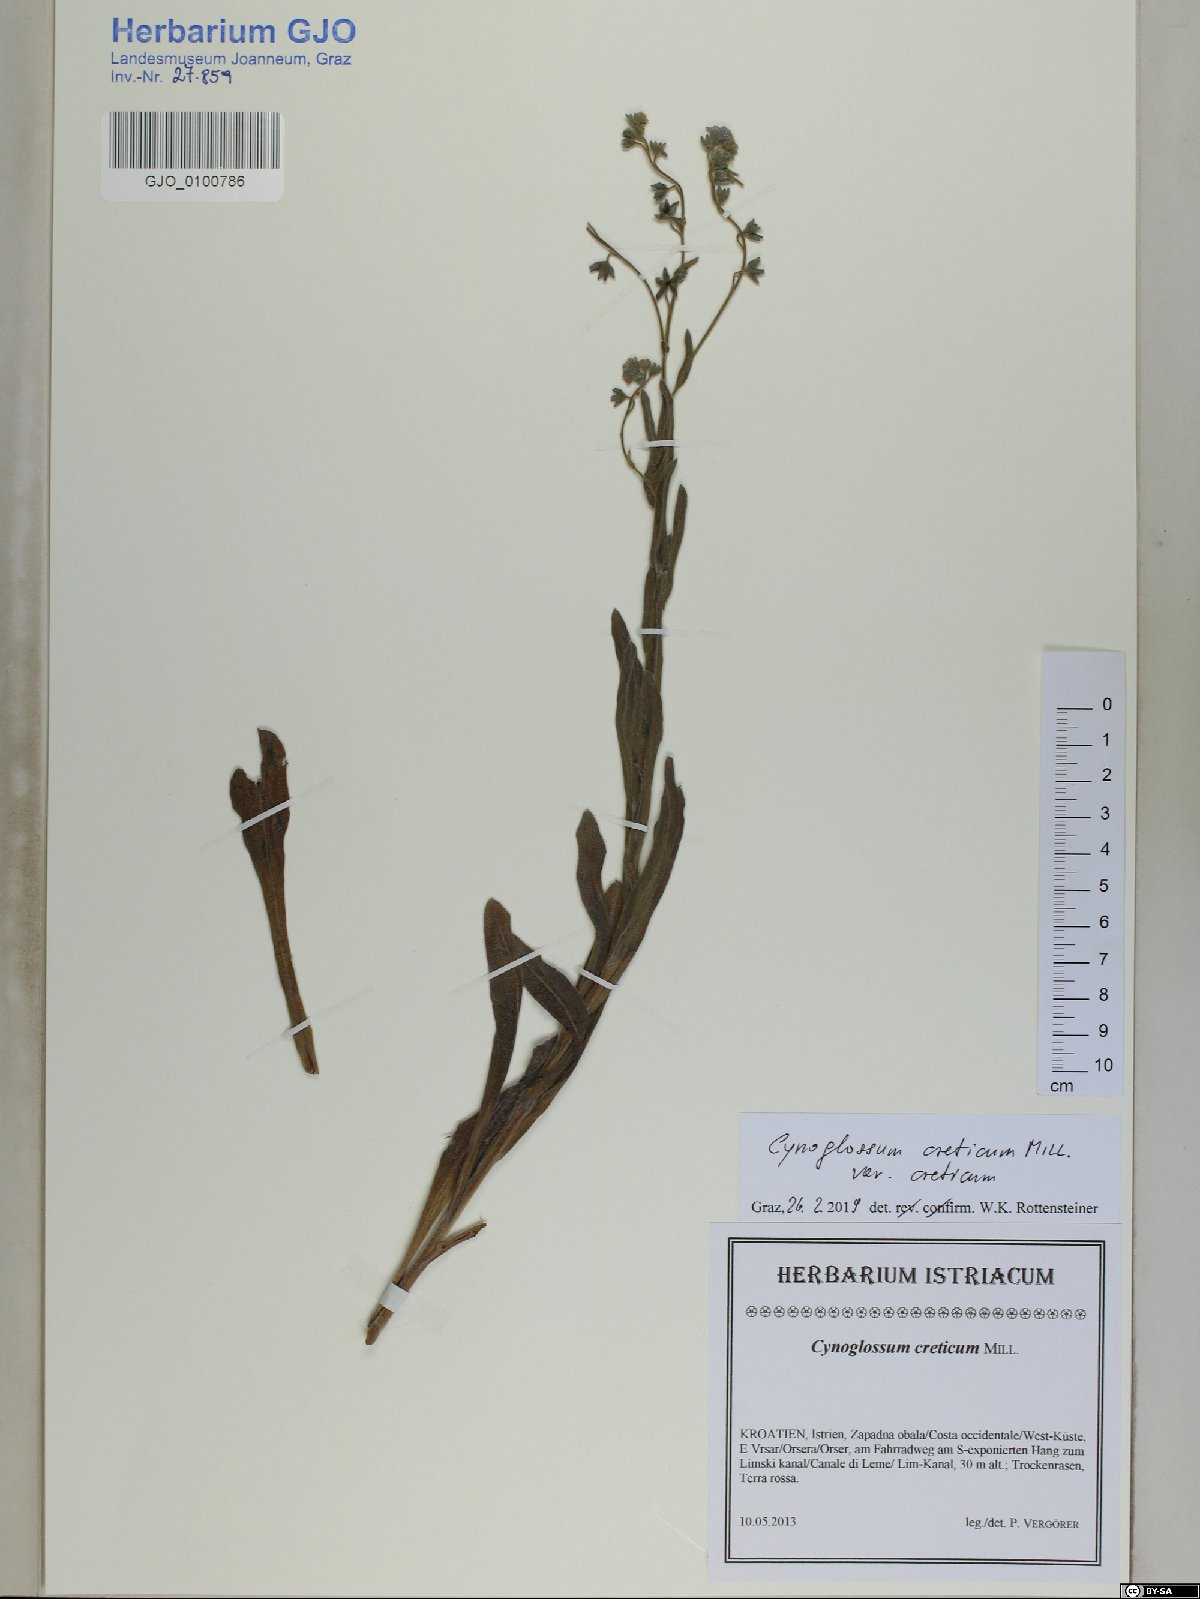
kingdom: Plantae
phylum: Tracheophyta
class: Magnoliopsida
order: Boraginales
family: Boraginaceae
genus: Cynoglossum
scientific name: Cynoglossum creticum
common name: Blue hound's tongue
